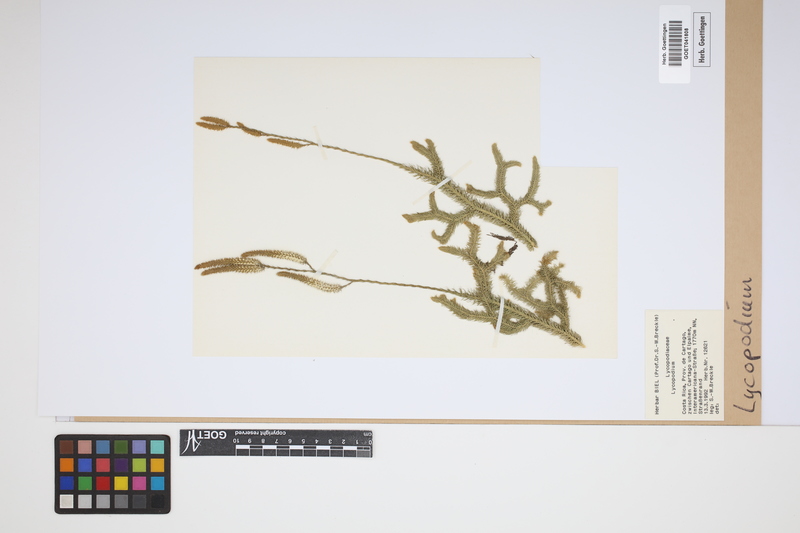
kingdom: Plantae
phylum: Tracheophyta
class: Lycopodiopsida
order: Lycopodiales
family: Lycopodiaceae
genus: Lycopodium
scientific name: Lycopodium
